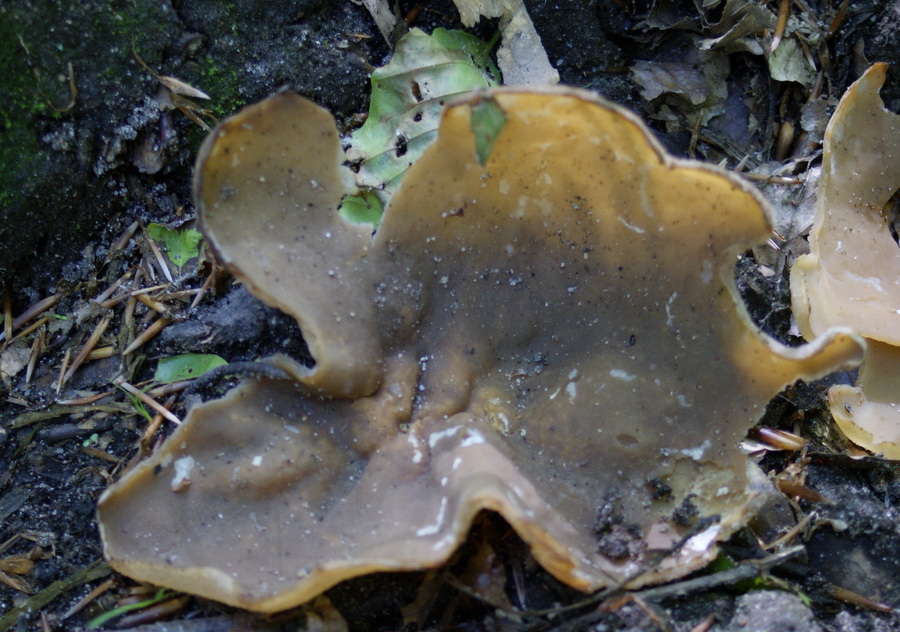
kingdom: Fungi
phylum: Ascomycota
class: Pezizomycetes
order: Pezizales
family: Morchellaceae
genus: Disciotis
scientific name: Disciotis venosa
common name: klor-bægermorkel
